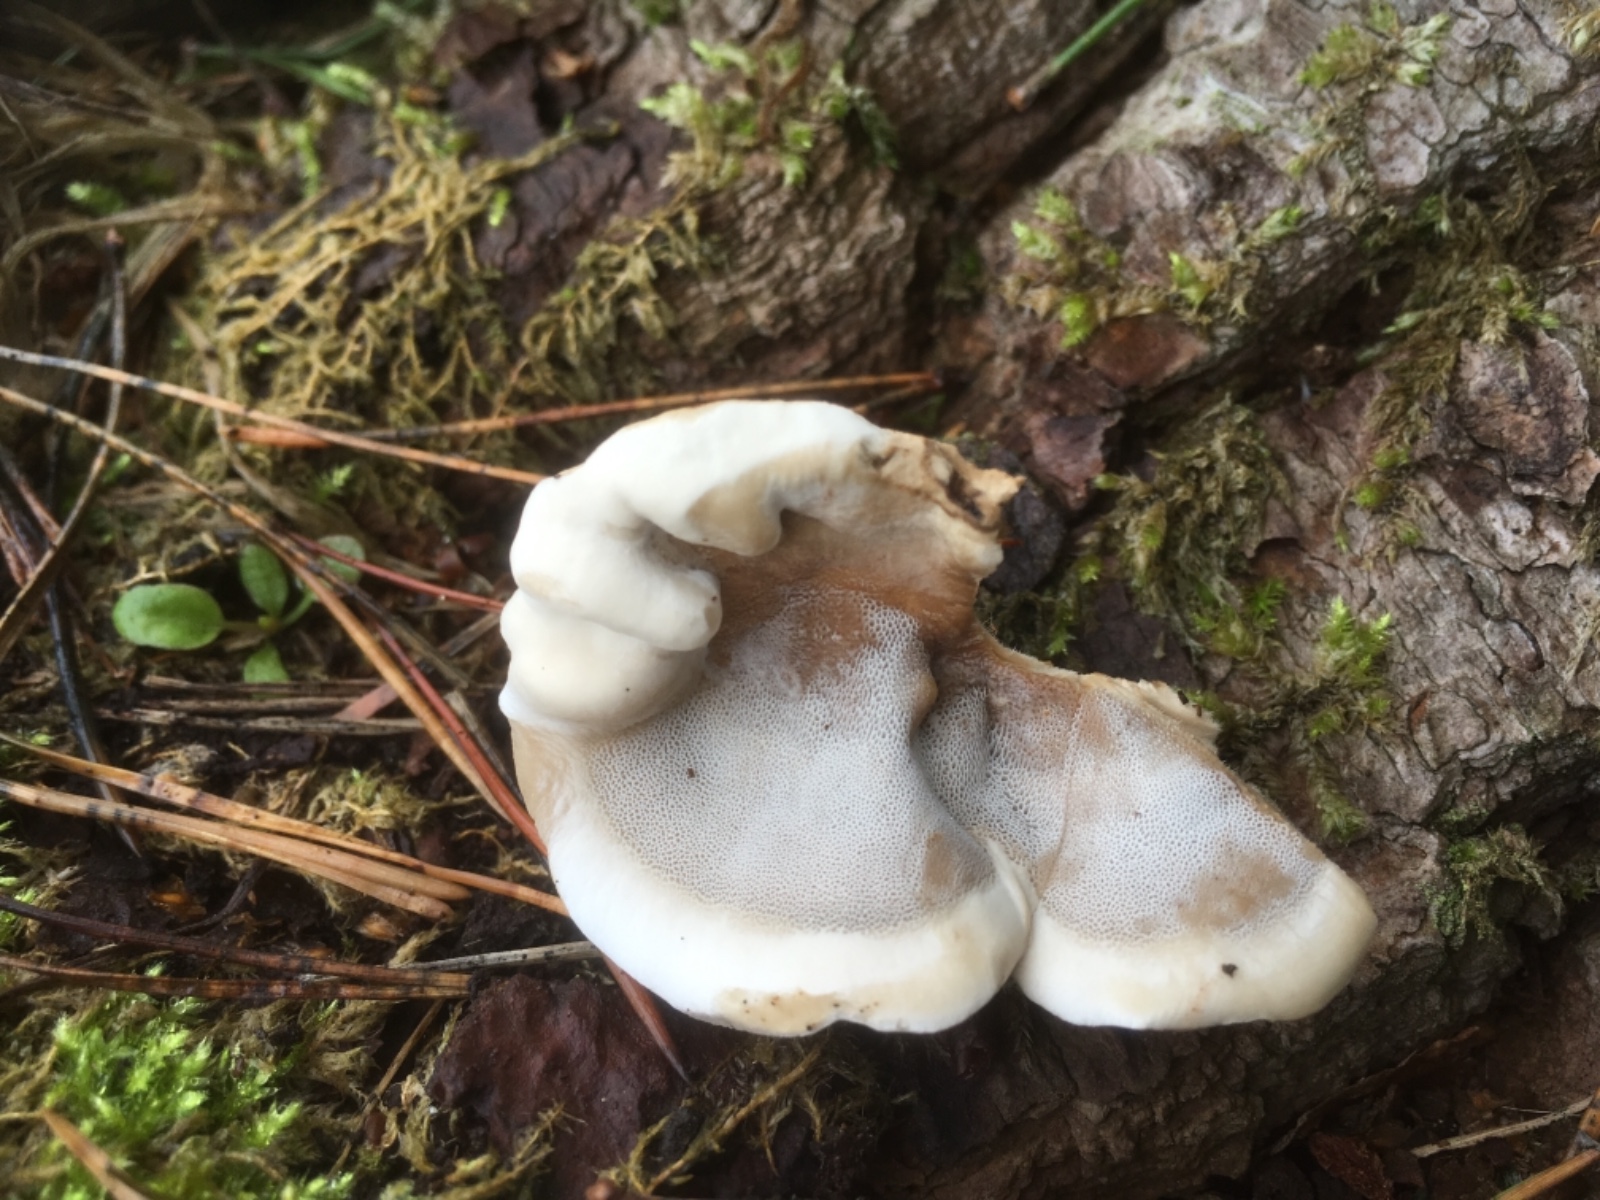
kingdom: Fungi
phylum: Basidiomycota
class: Agaricomycetes
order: Polyporales
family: Phanerochaetaceae
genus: Bjerkandera
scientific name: Bjerkandera fumosa
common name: grågul sodporesvamp
